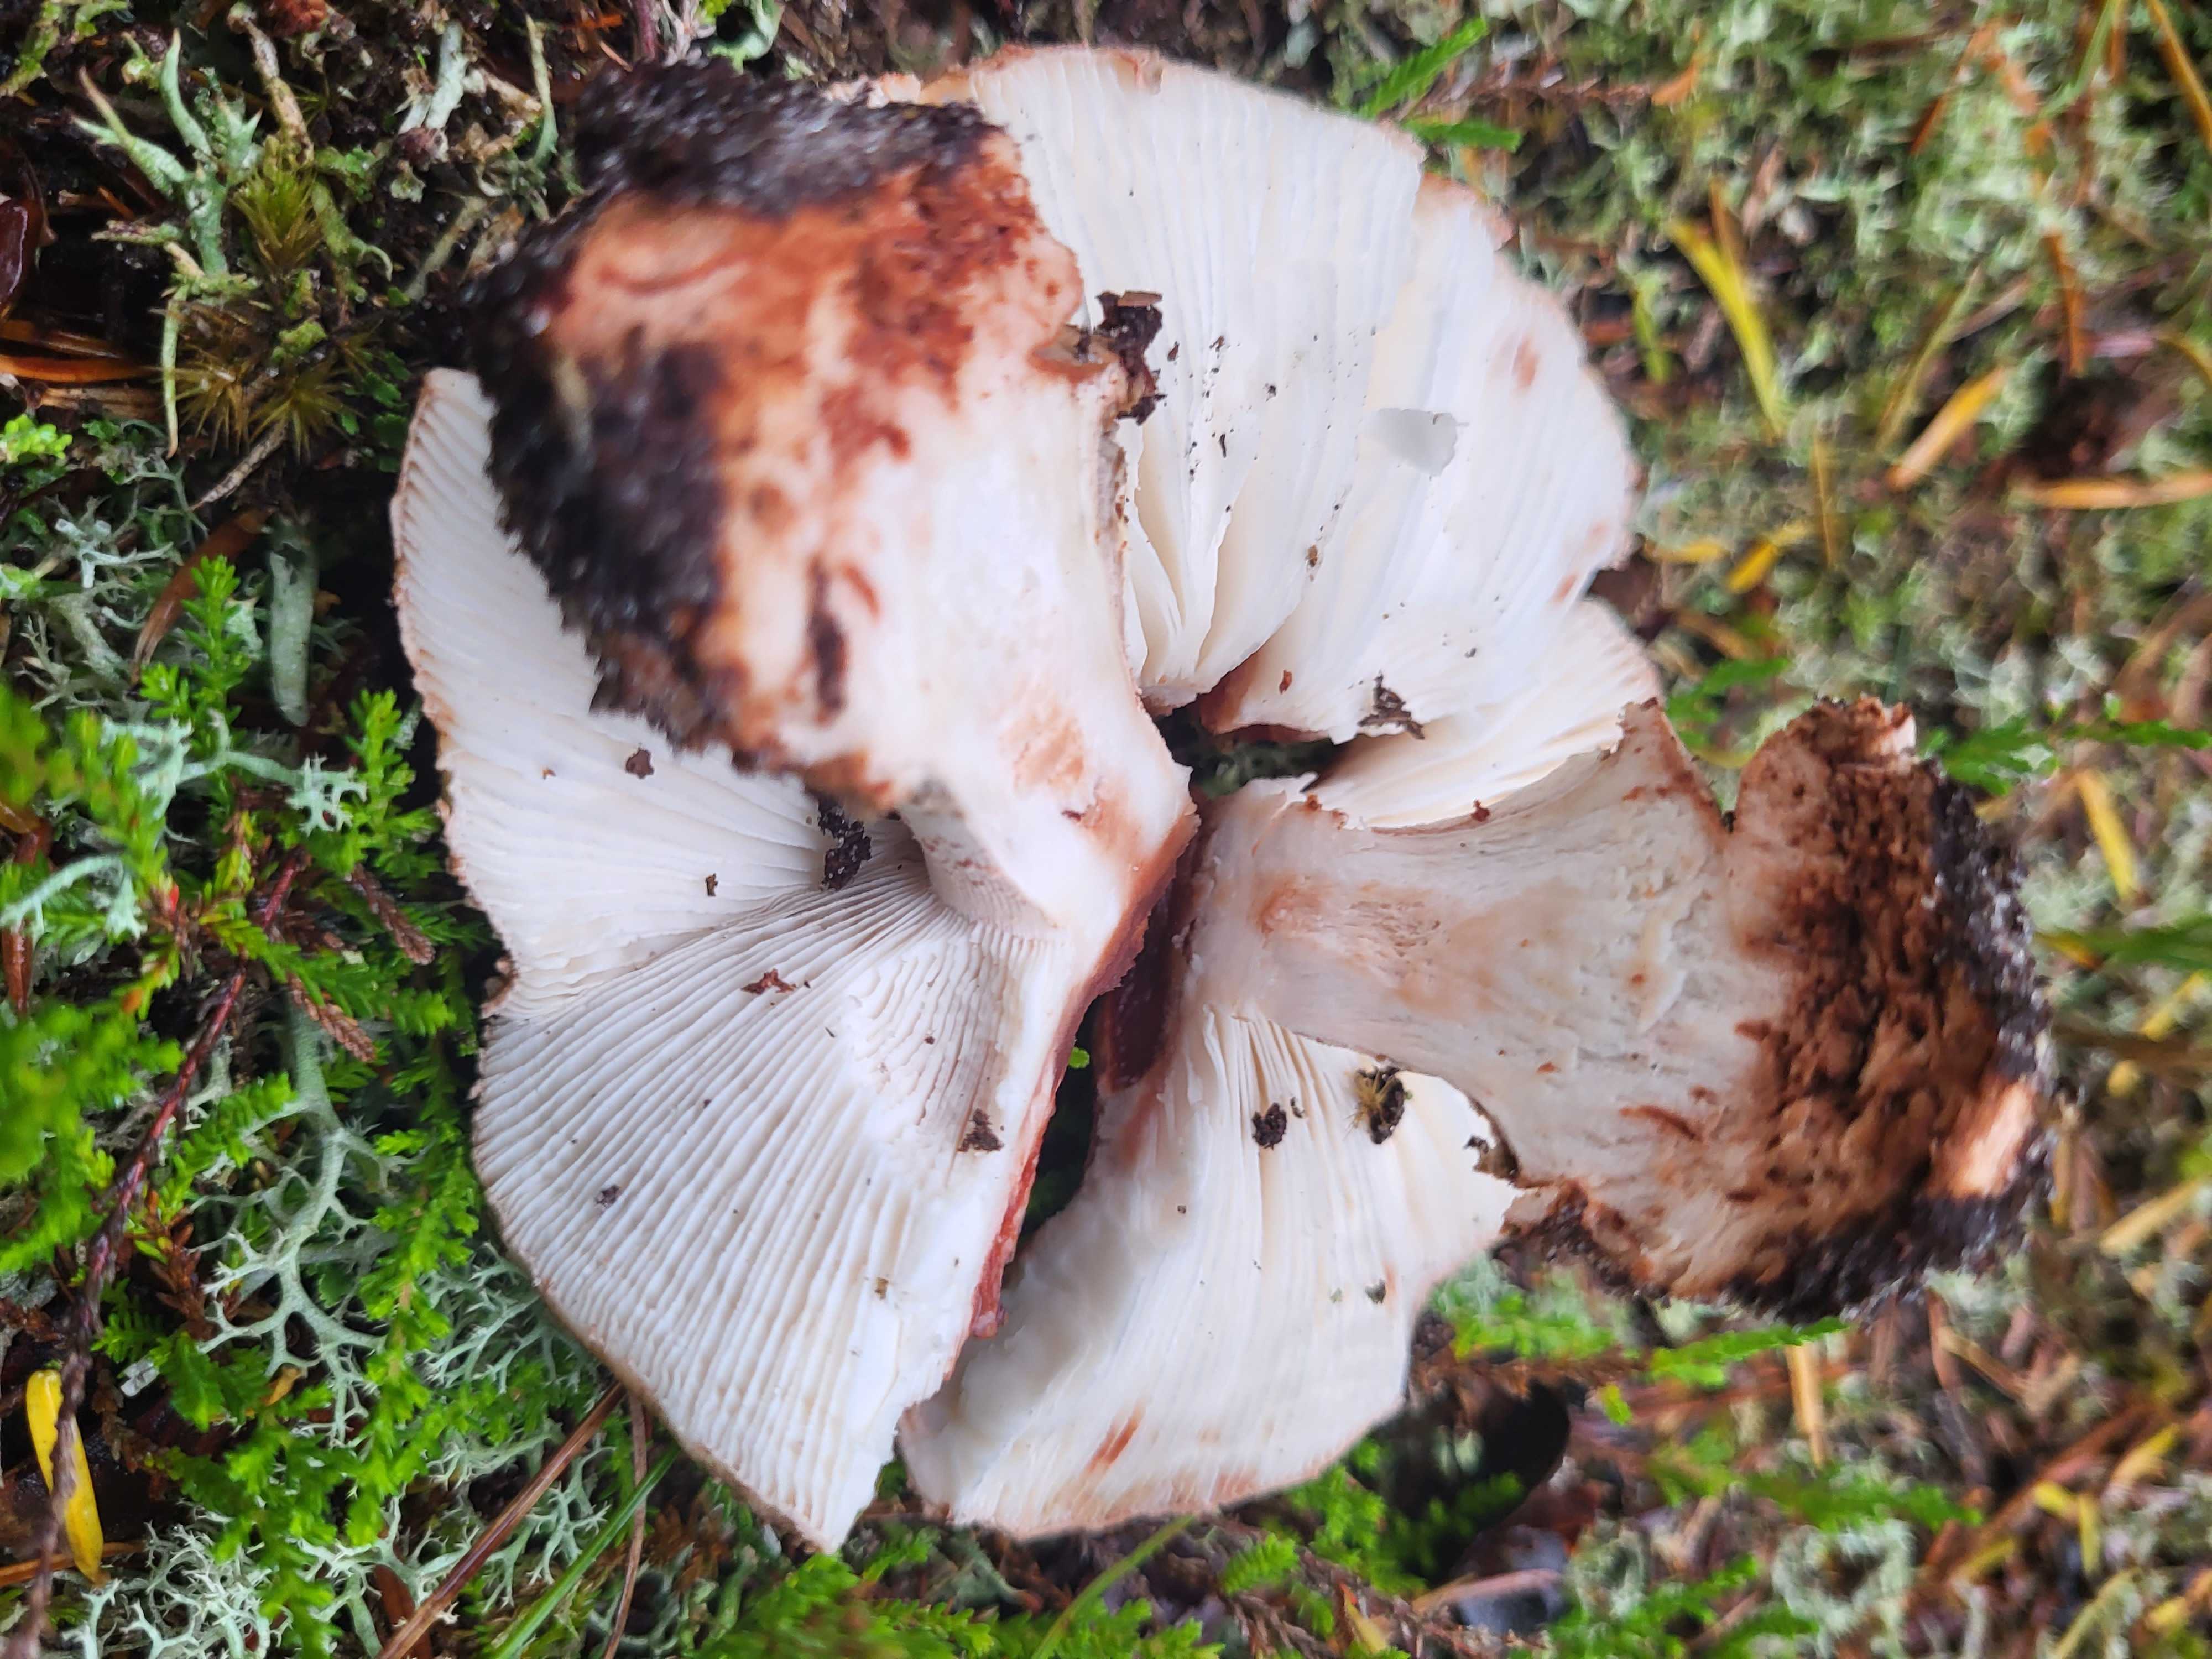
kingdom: Fungi
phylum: Basidiomycota
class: Agaricomycetes
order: Agaricales
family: Amanitaceae
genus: Amanita
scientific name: Amanita rubescens
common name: rødmende fluesvamp
